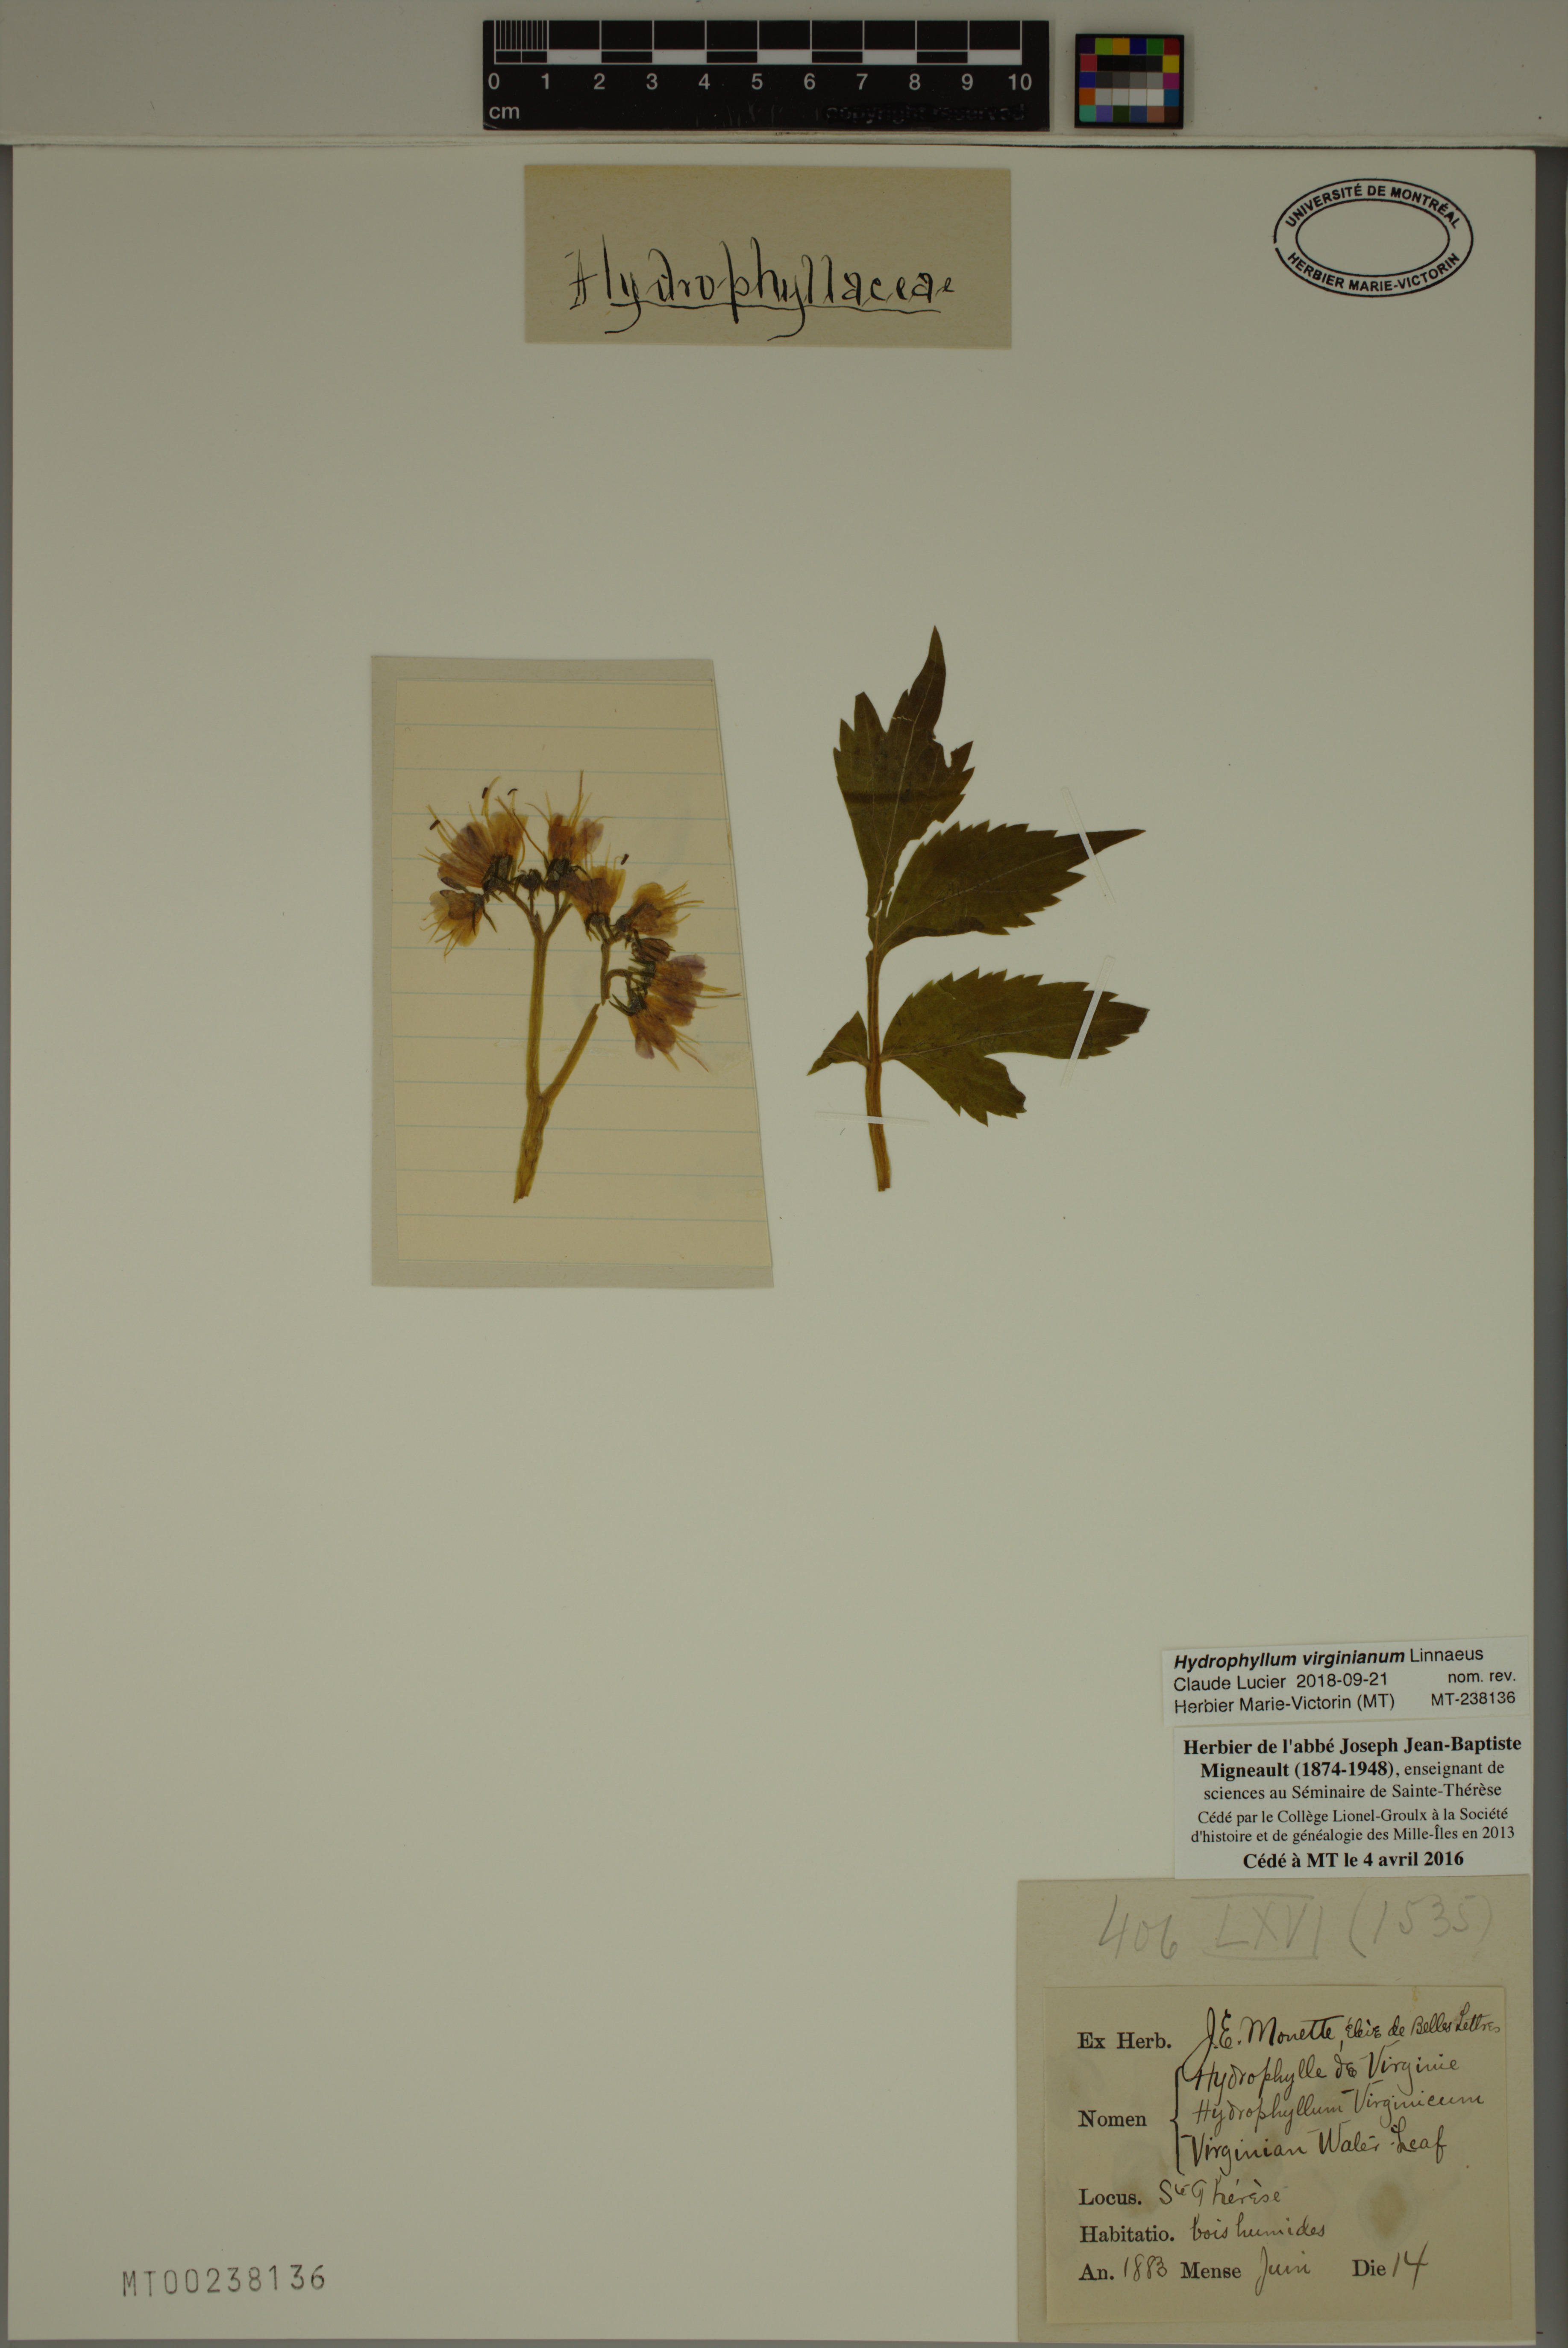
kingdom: Plantae
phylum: Tracheophyta
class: Magnoliopsida
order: Boraginales
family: Hydrophyllaceae
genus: Hydrophyllum
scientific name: Hydrophyllum virginianum
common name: Virginia waterleaf
